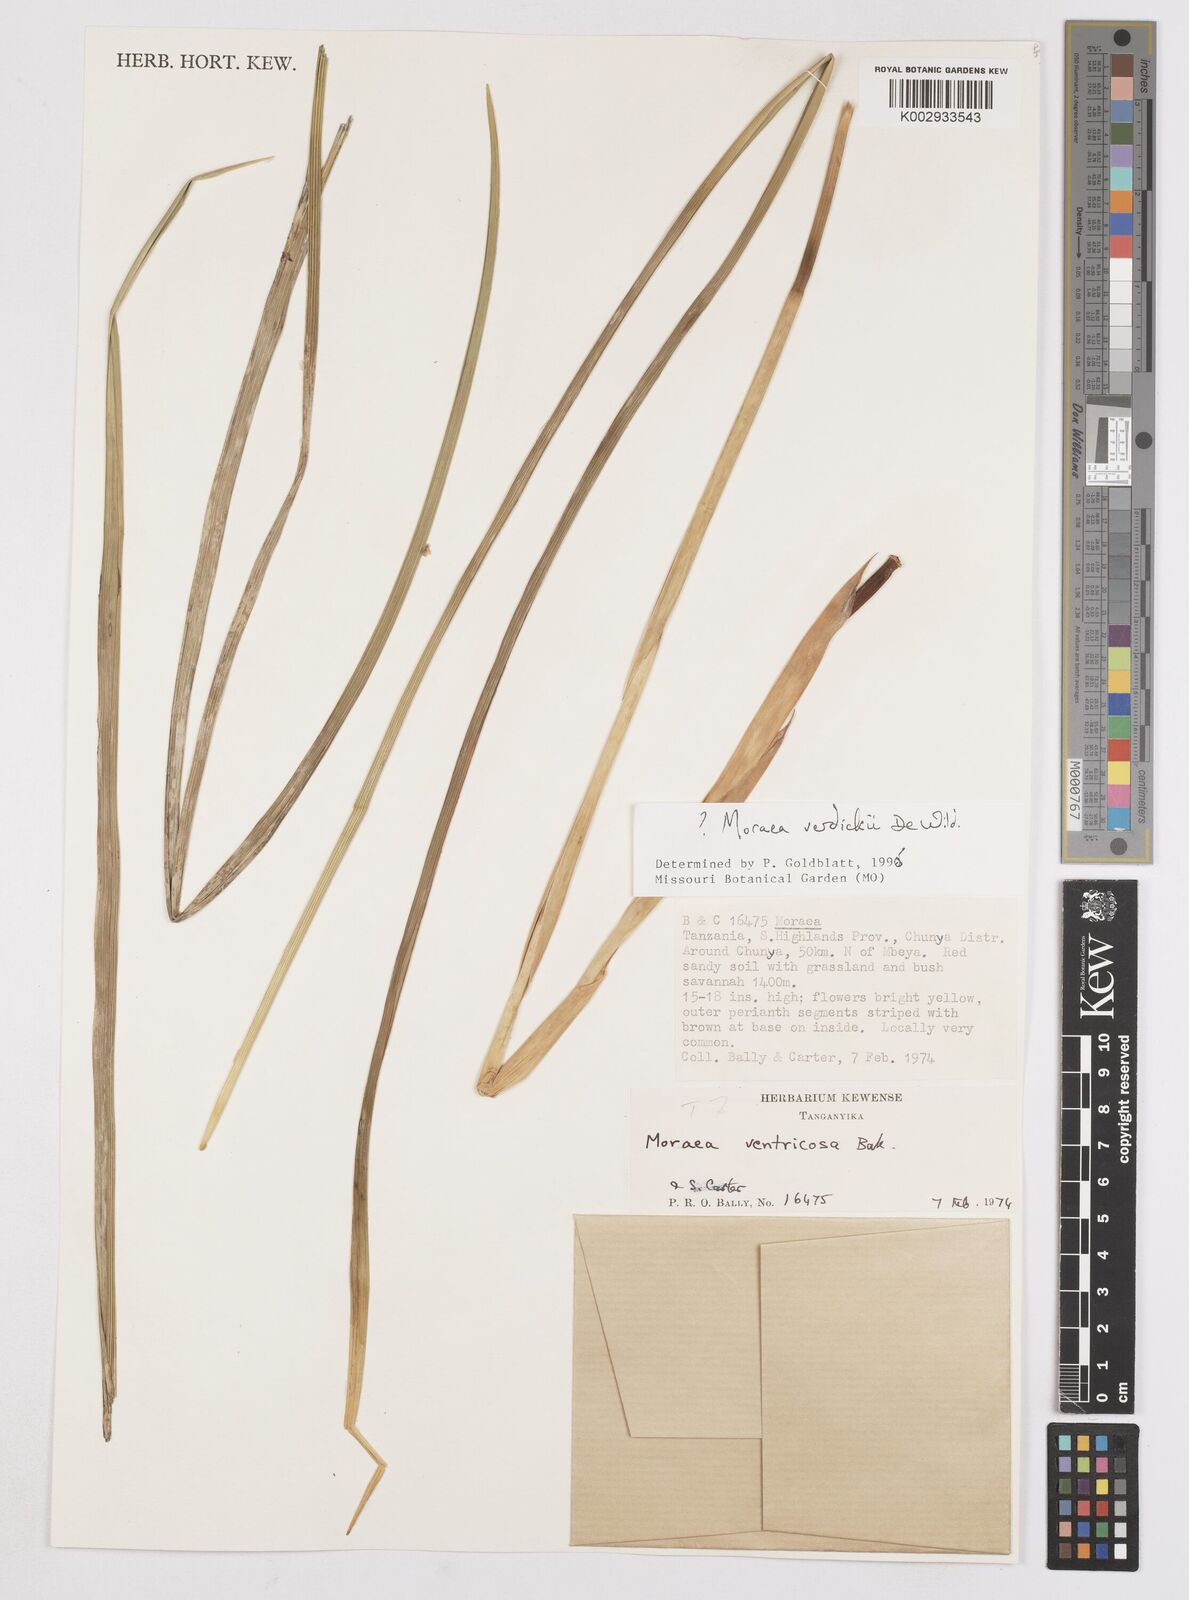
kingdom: Plantae
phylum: Tracheophyta
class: Liliopsida
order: Asparagales
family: Iridaceae
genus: Moraea
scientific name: Moraea verdickii
